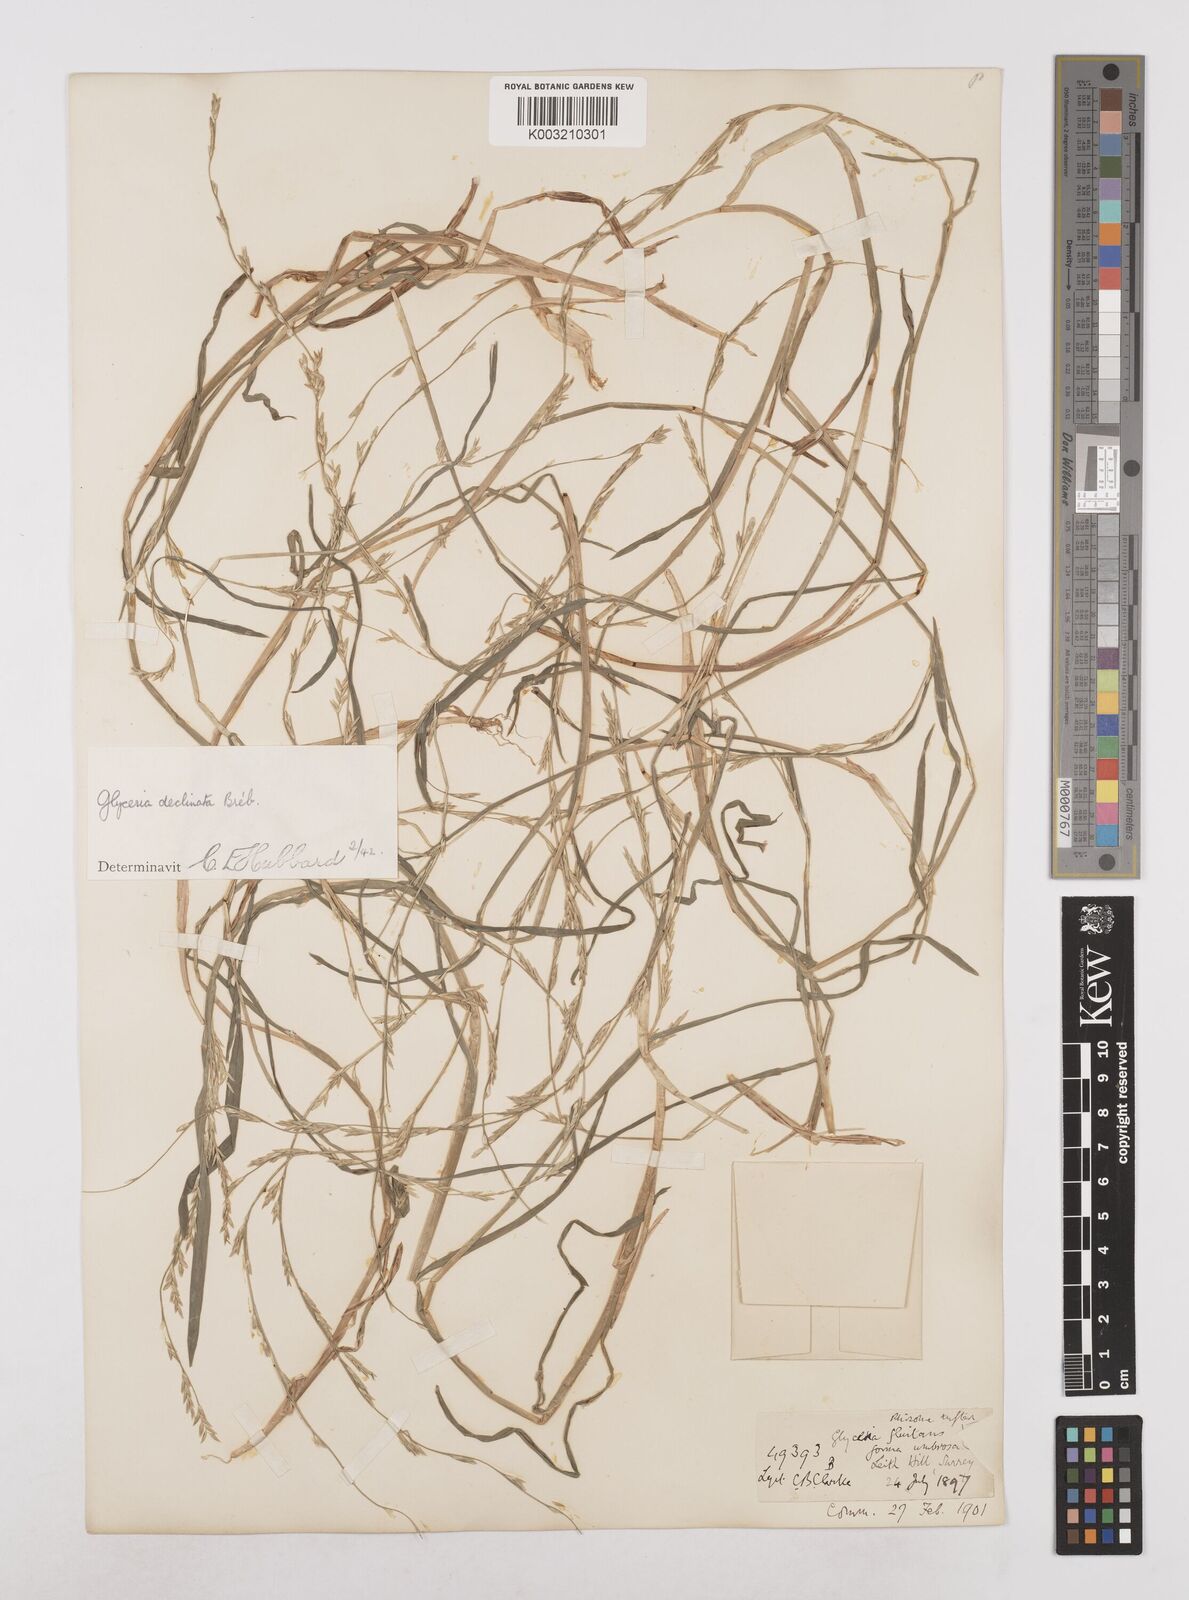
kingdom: Plantae
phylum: Tracheophyta
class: Liliopsida
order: Poales
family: Poaceae
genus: Glyceria
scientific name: Glyceria declinata
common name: Small sweet-grass
